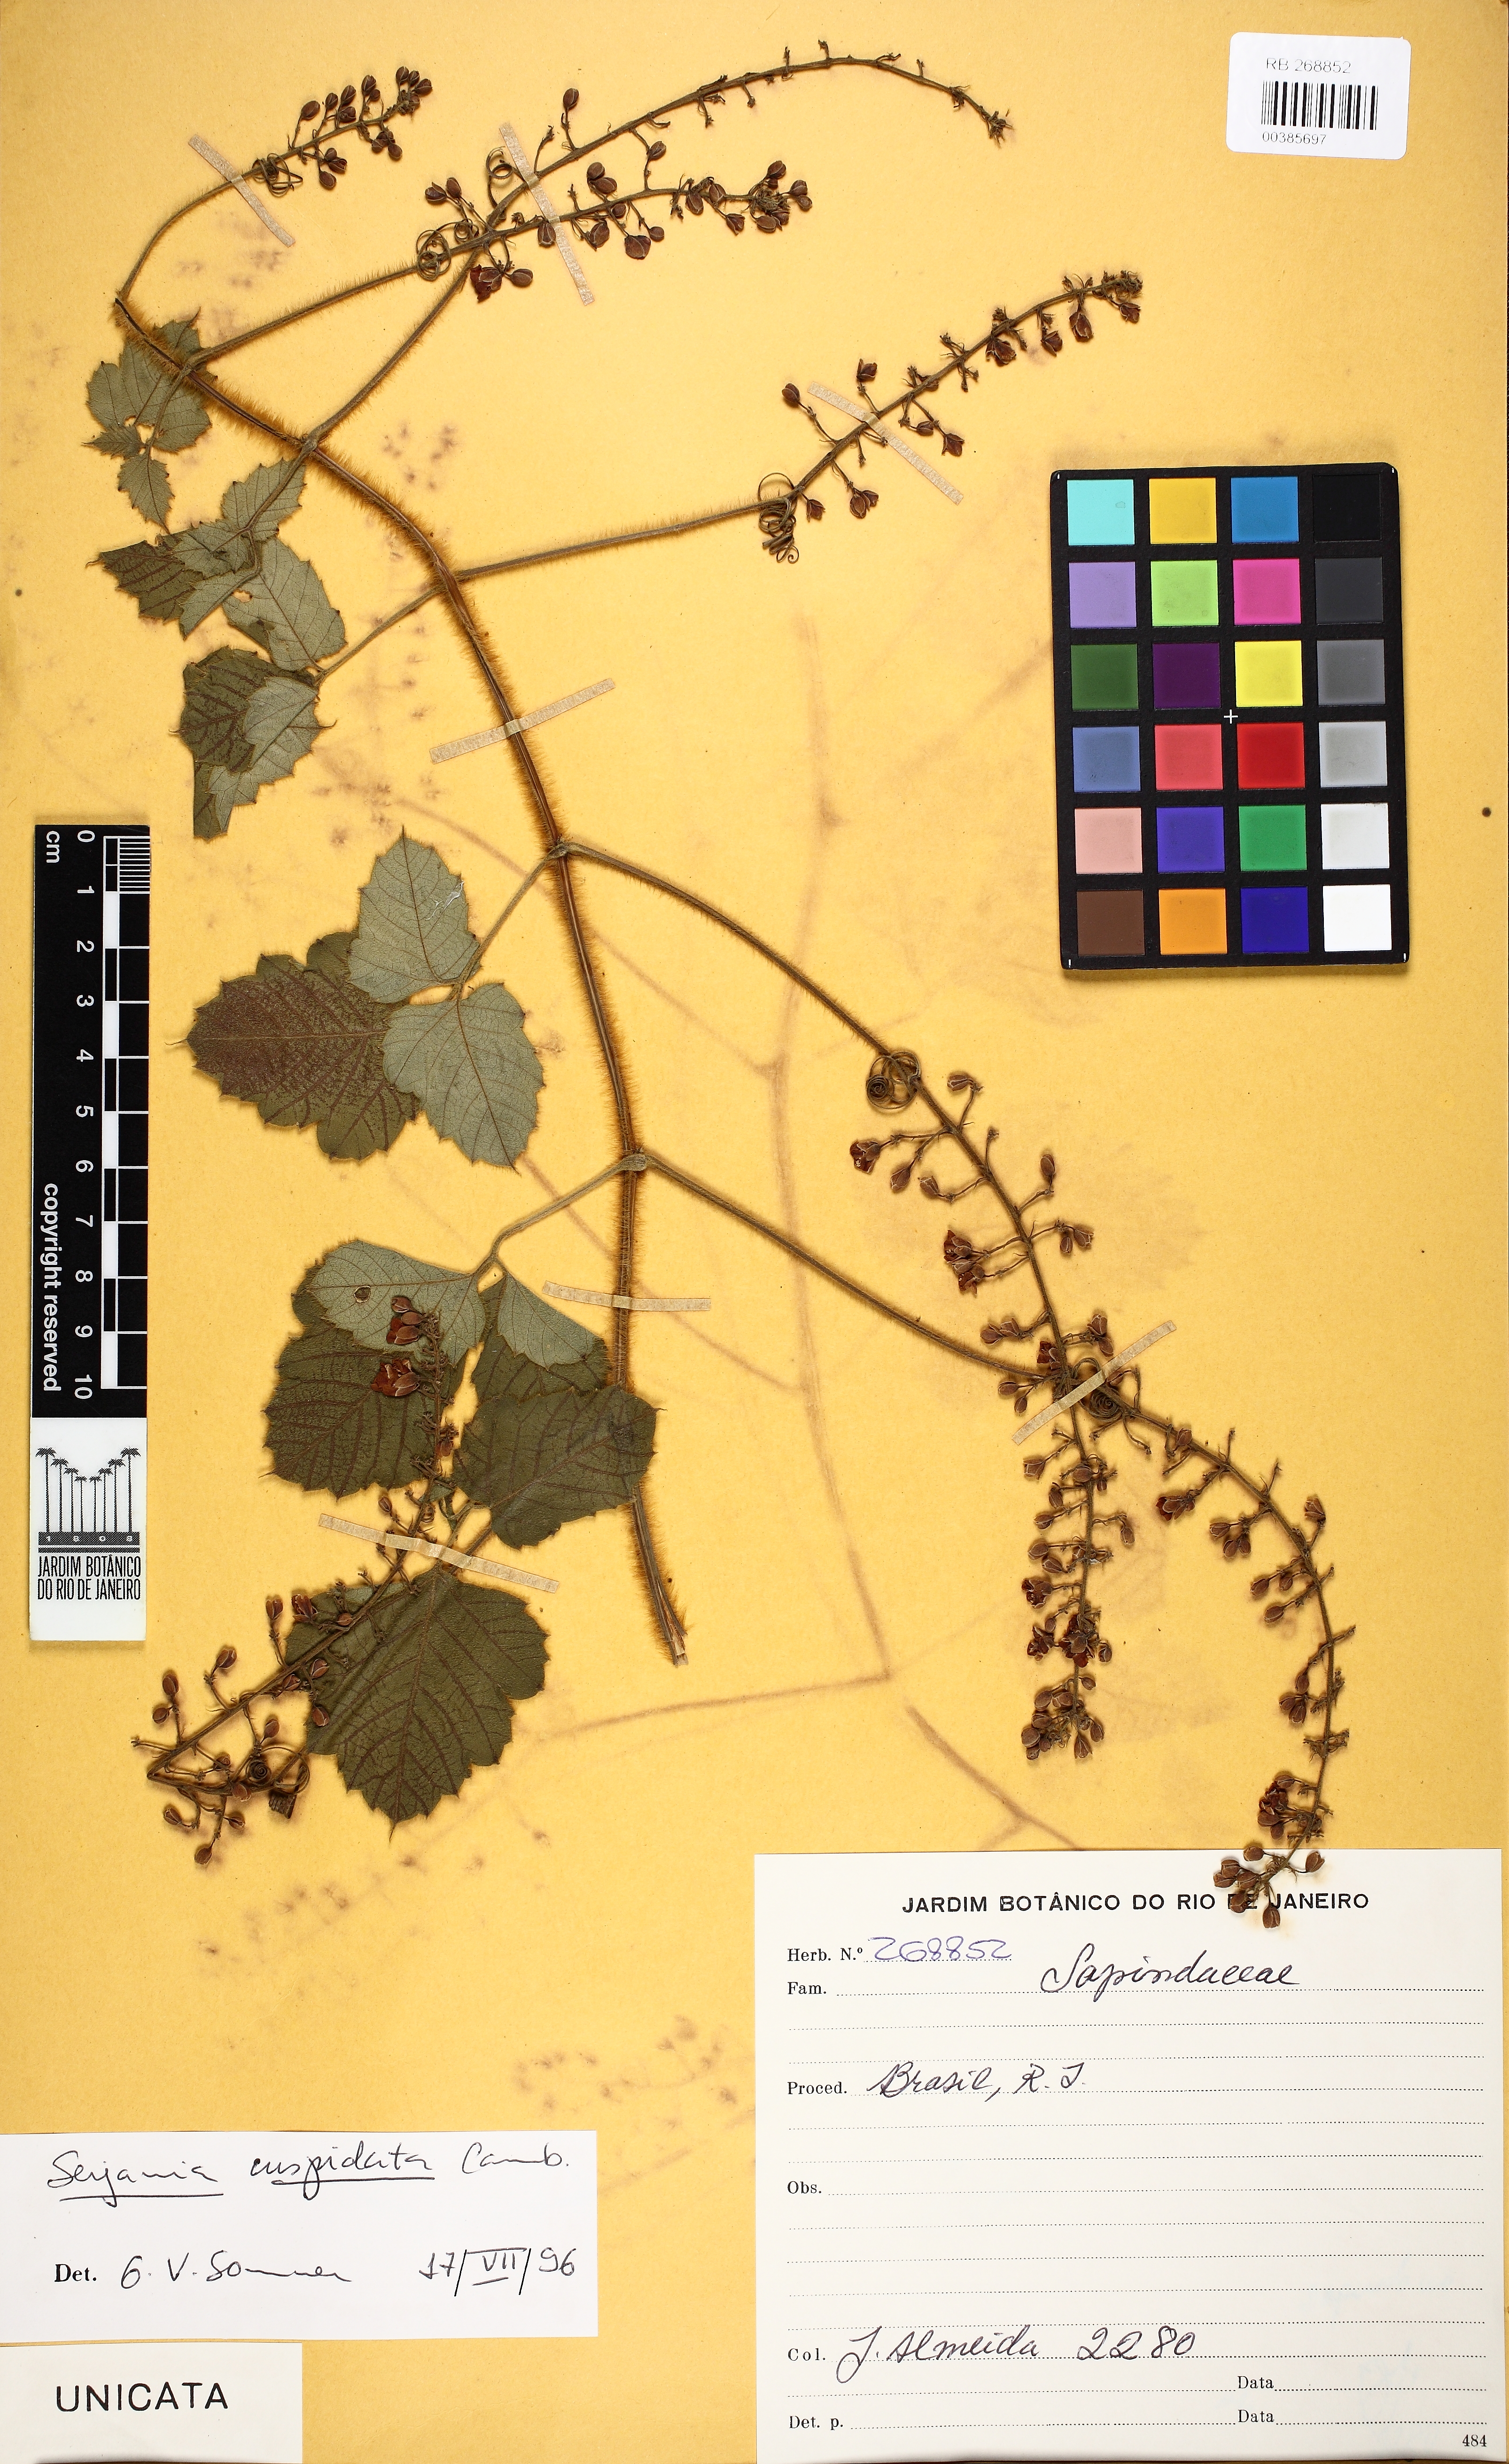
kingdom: Plantae
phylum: Tracheophyta
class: Magnoliopsida
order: Sapindales
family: Sapindaceae
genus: Serjania
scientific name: Serjania ferruginea
